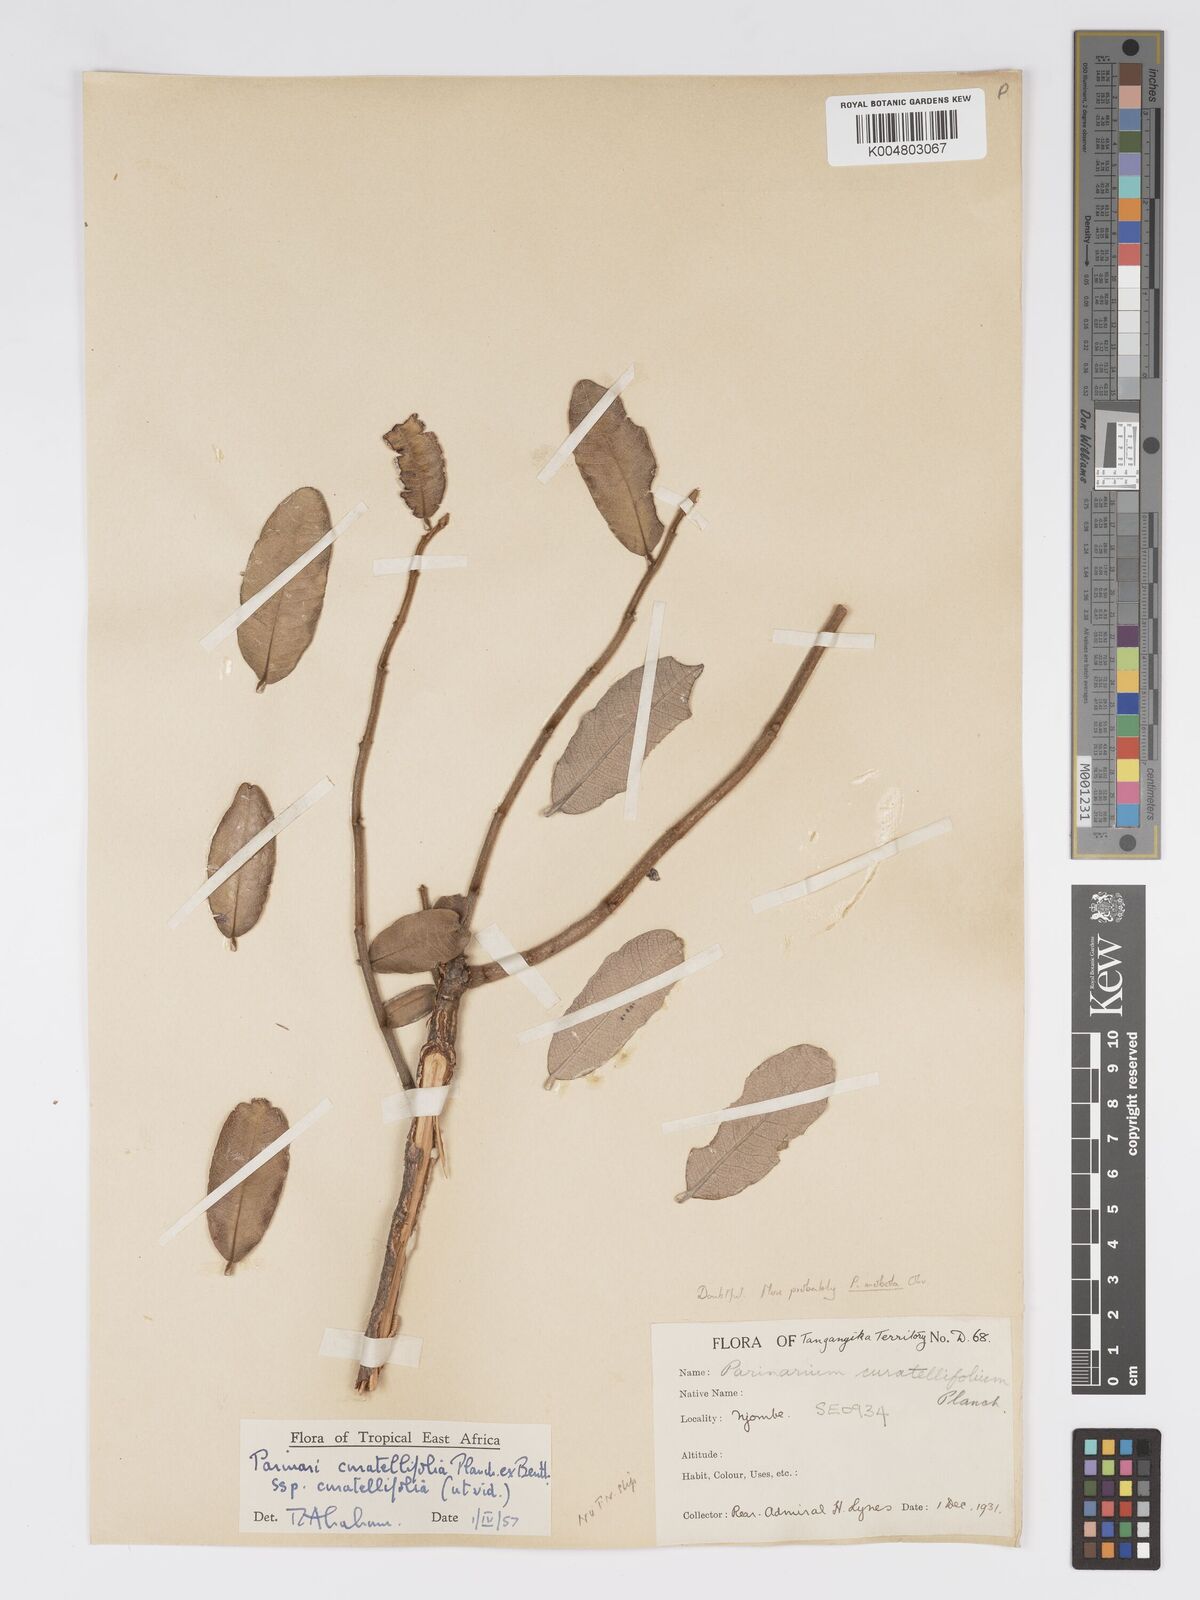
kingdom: Plantae
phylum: Tracheophyta
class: Magnoliopsida
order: Malpighiales
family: Chrysobalanaceae
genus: Parinari
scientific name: Parinari curatellifolia
